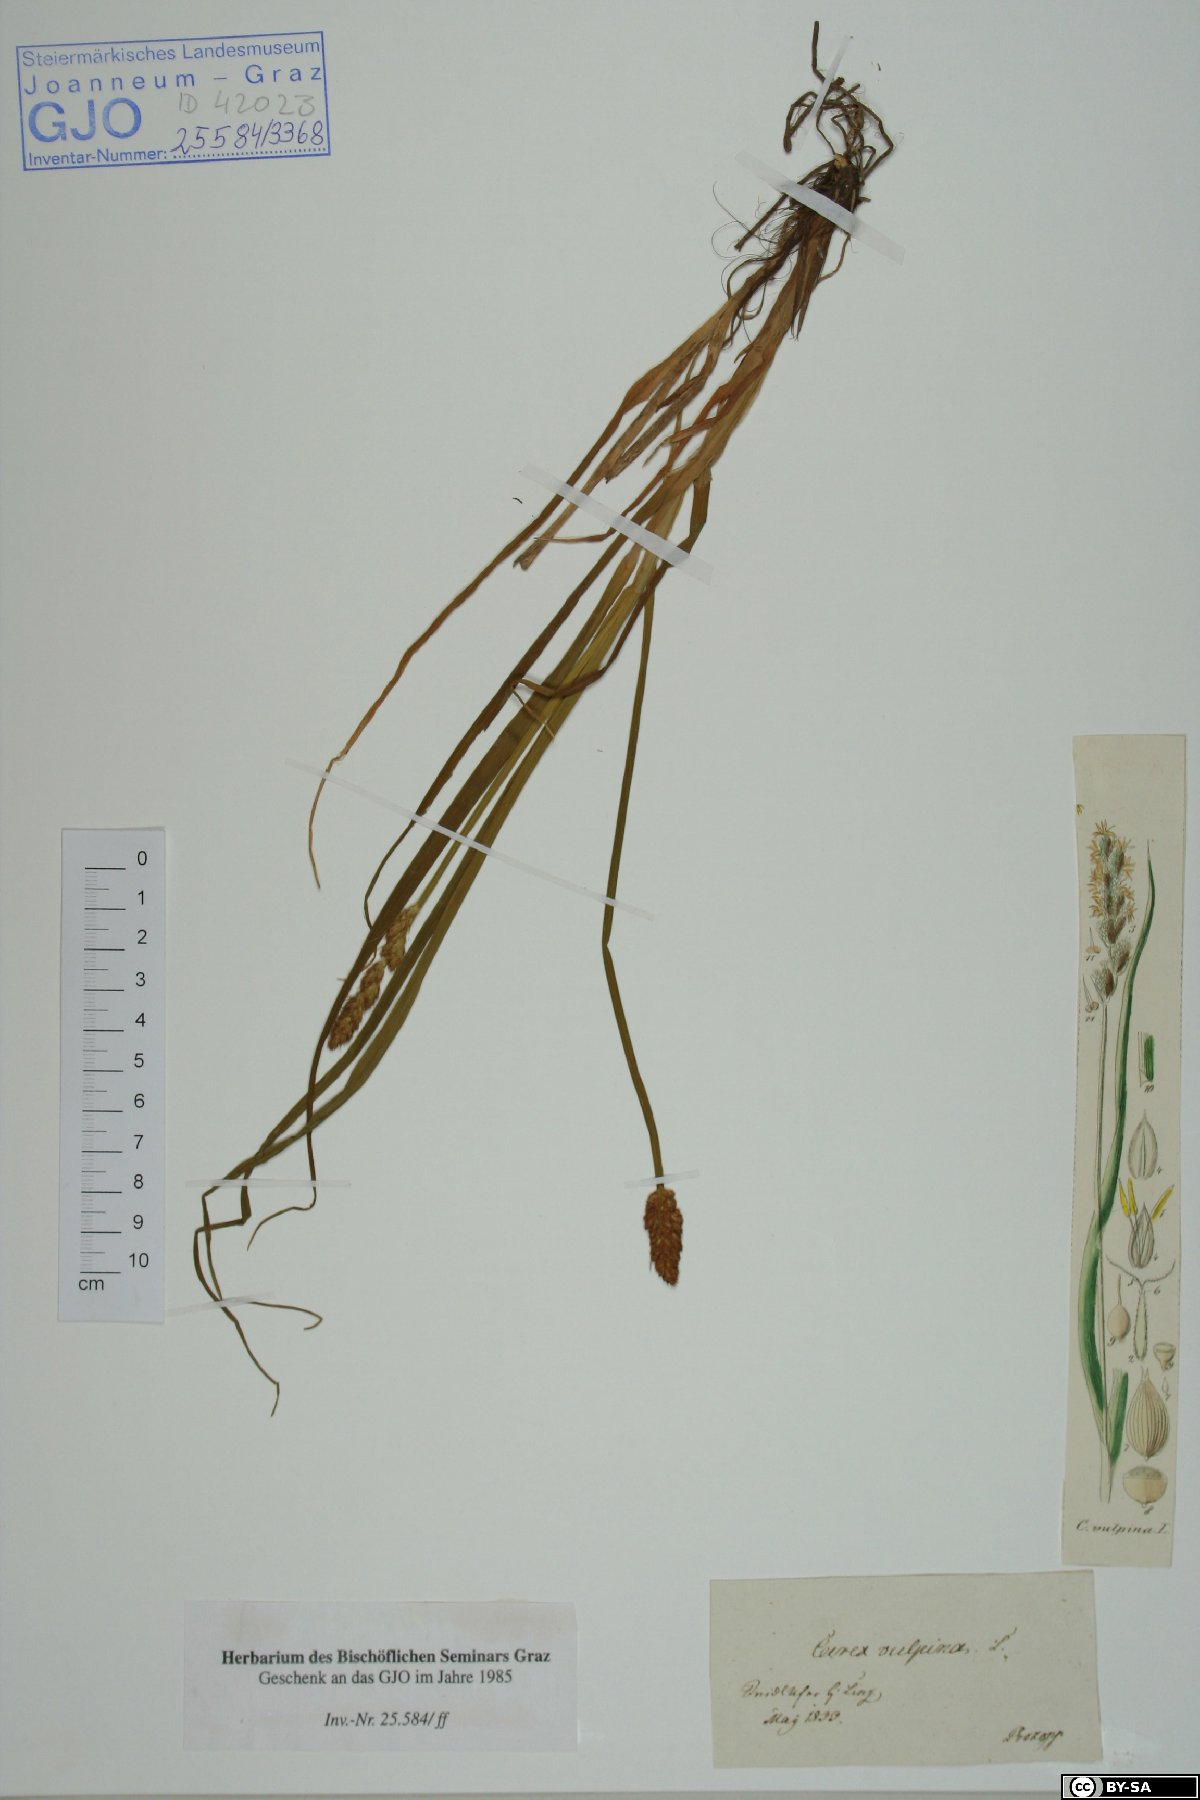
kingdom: Plantae
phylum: Tracheophyta
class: Liliopsida
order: Poales
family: Cyperaceae
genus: Carex
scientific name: Carex vulpina
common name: True fox-sedge
